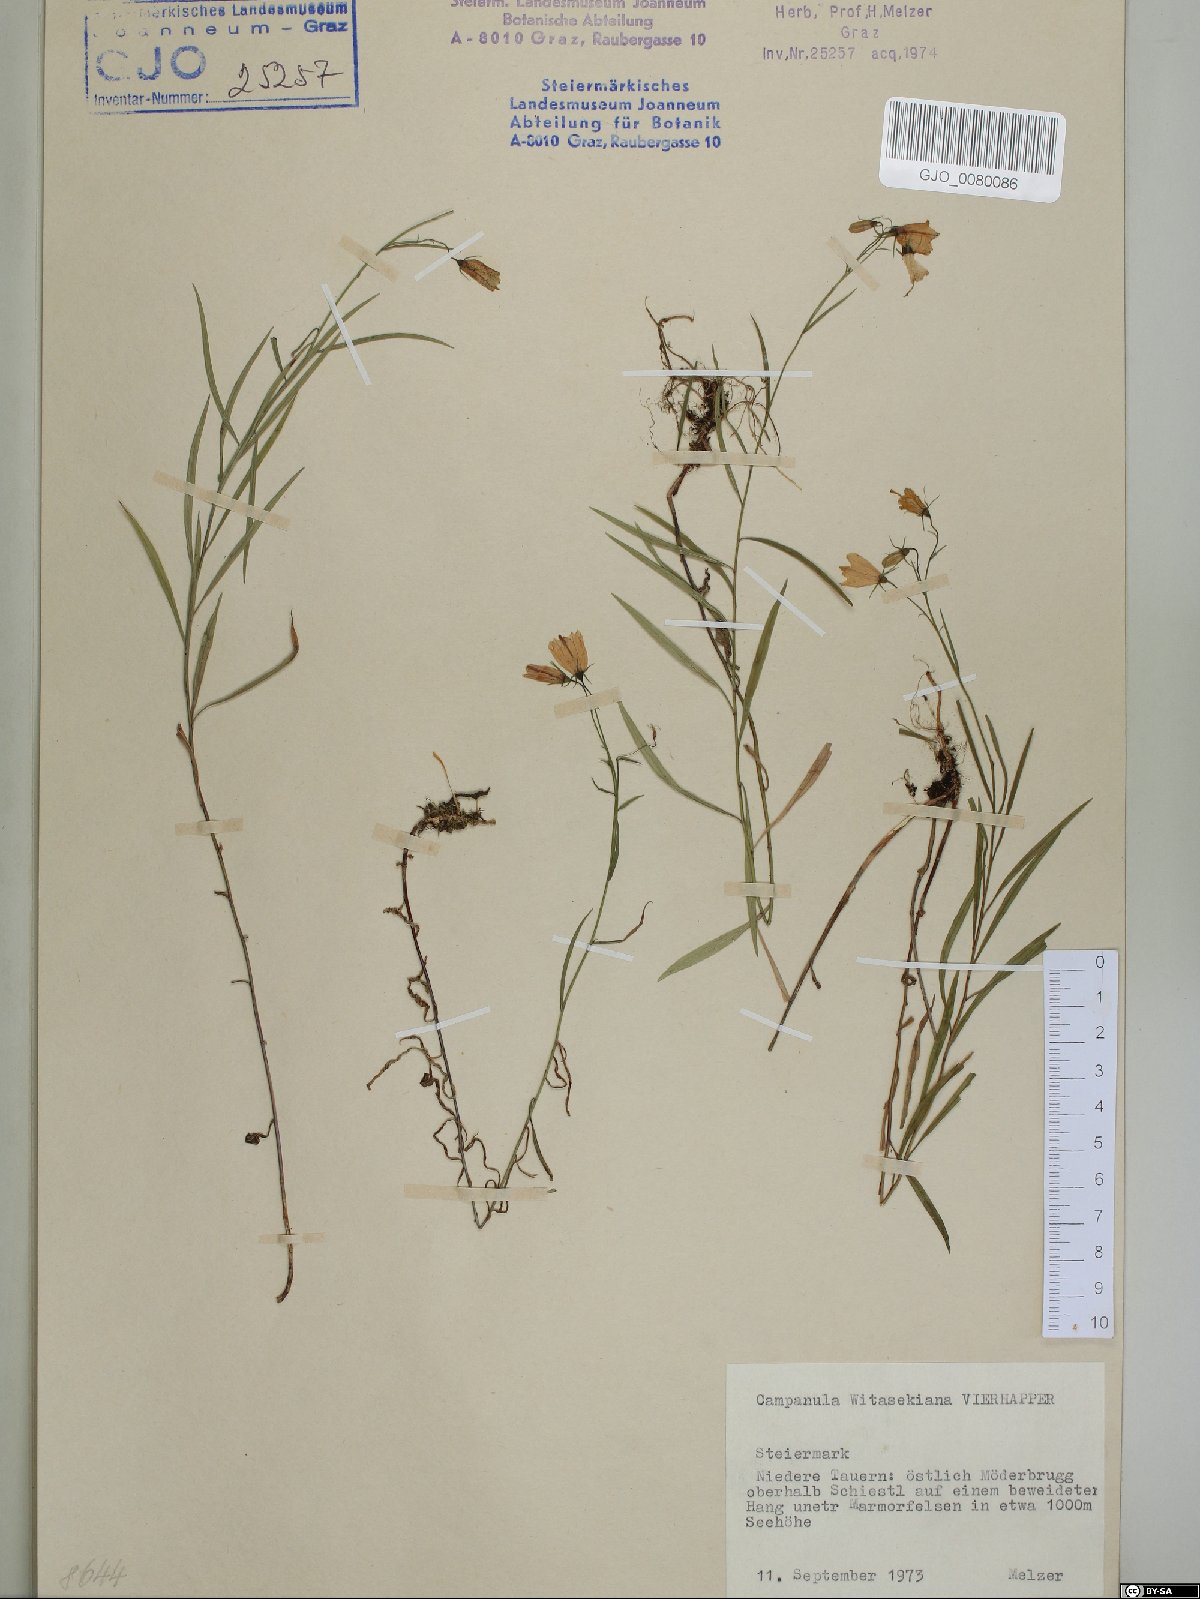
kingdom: Plantae
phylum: Tracheophyta
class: Magnoliopsida
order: Asterales
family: Campanulaceae
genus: Campanula
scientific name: Campanula witasekiana
